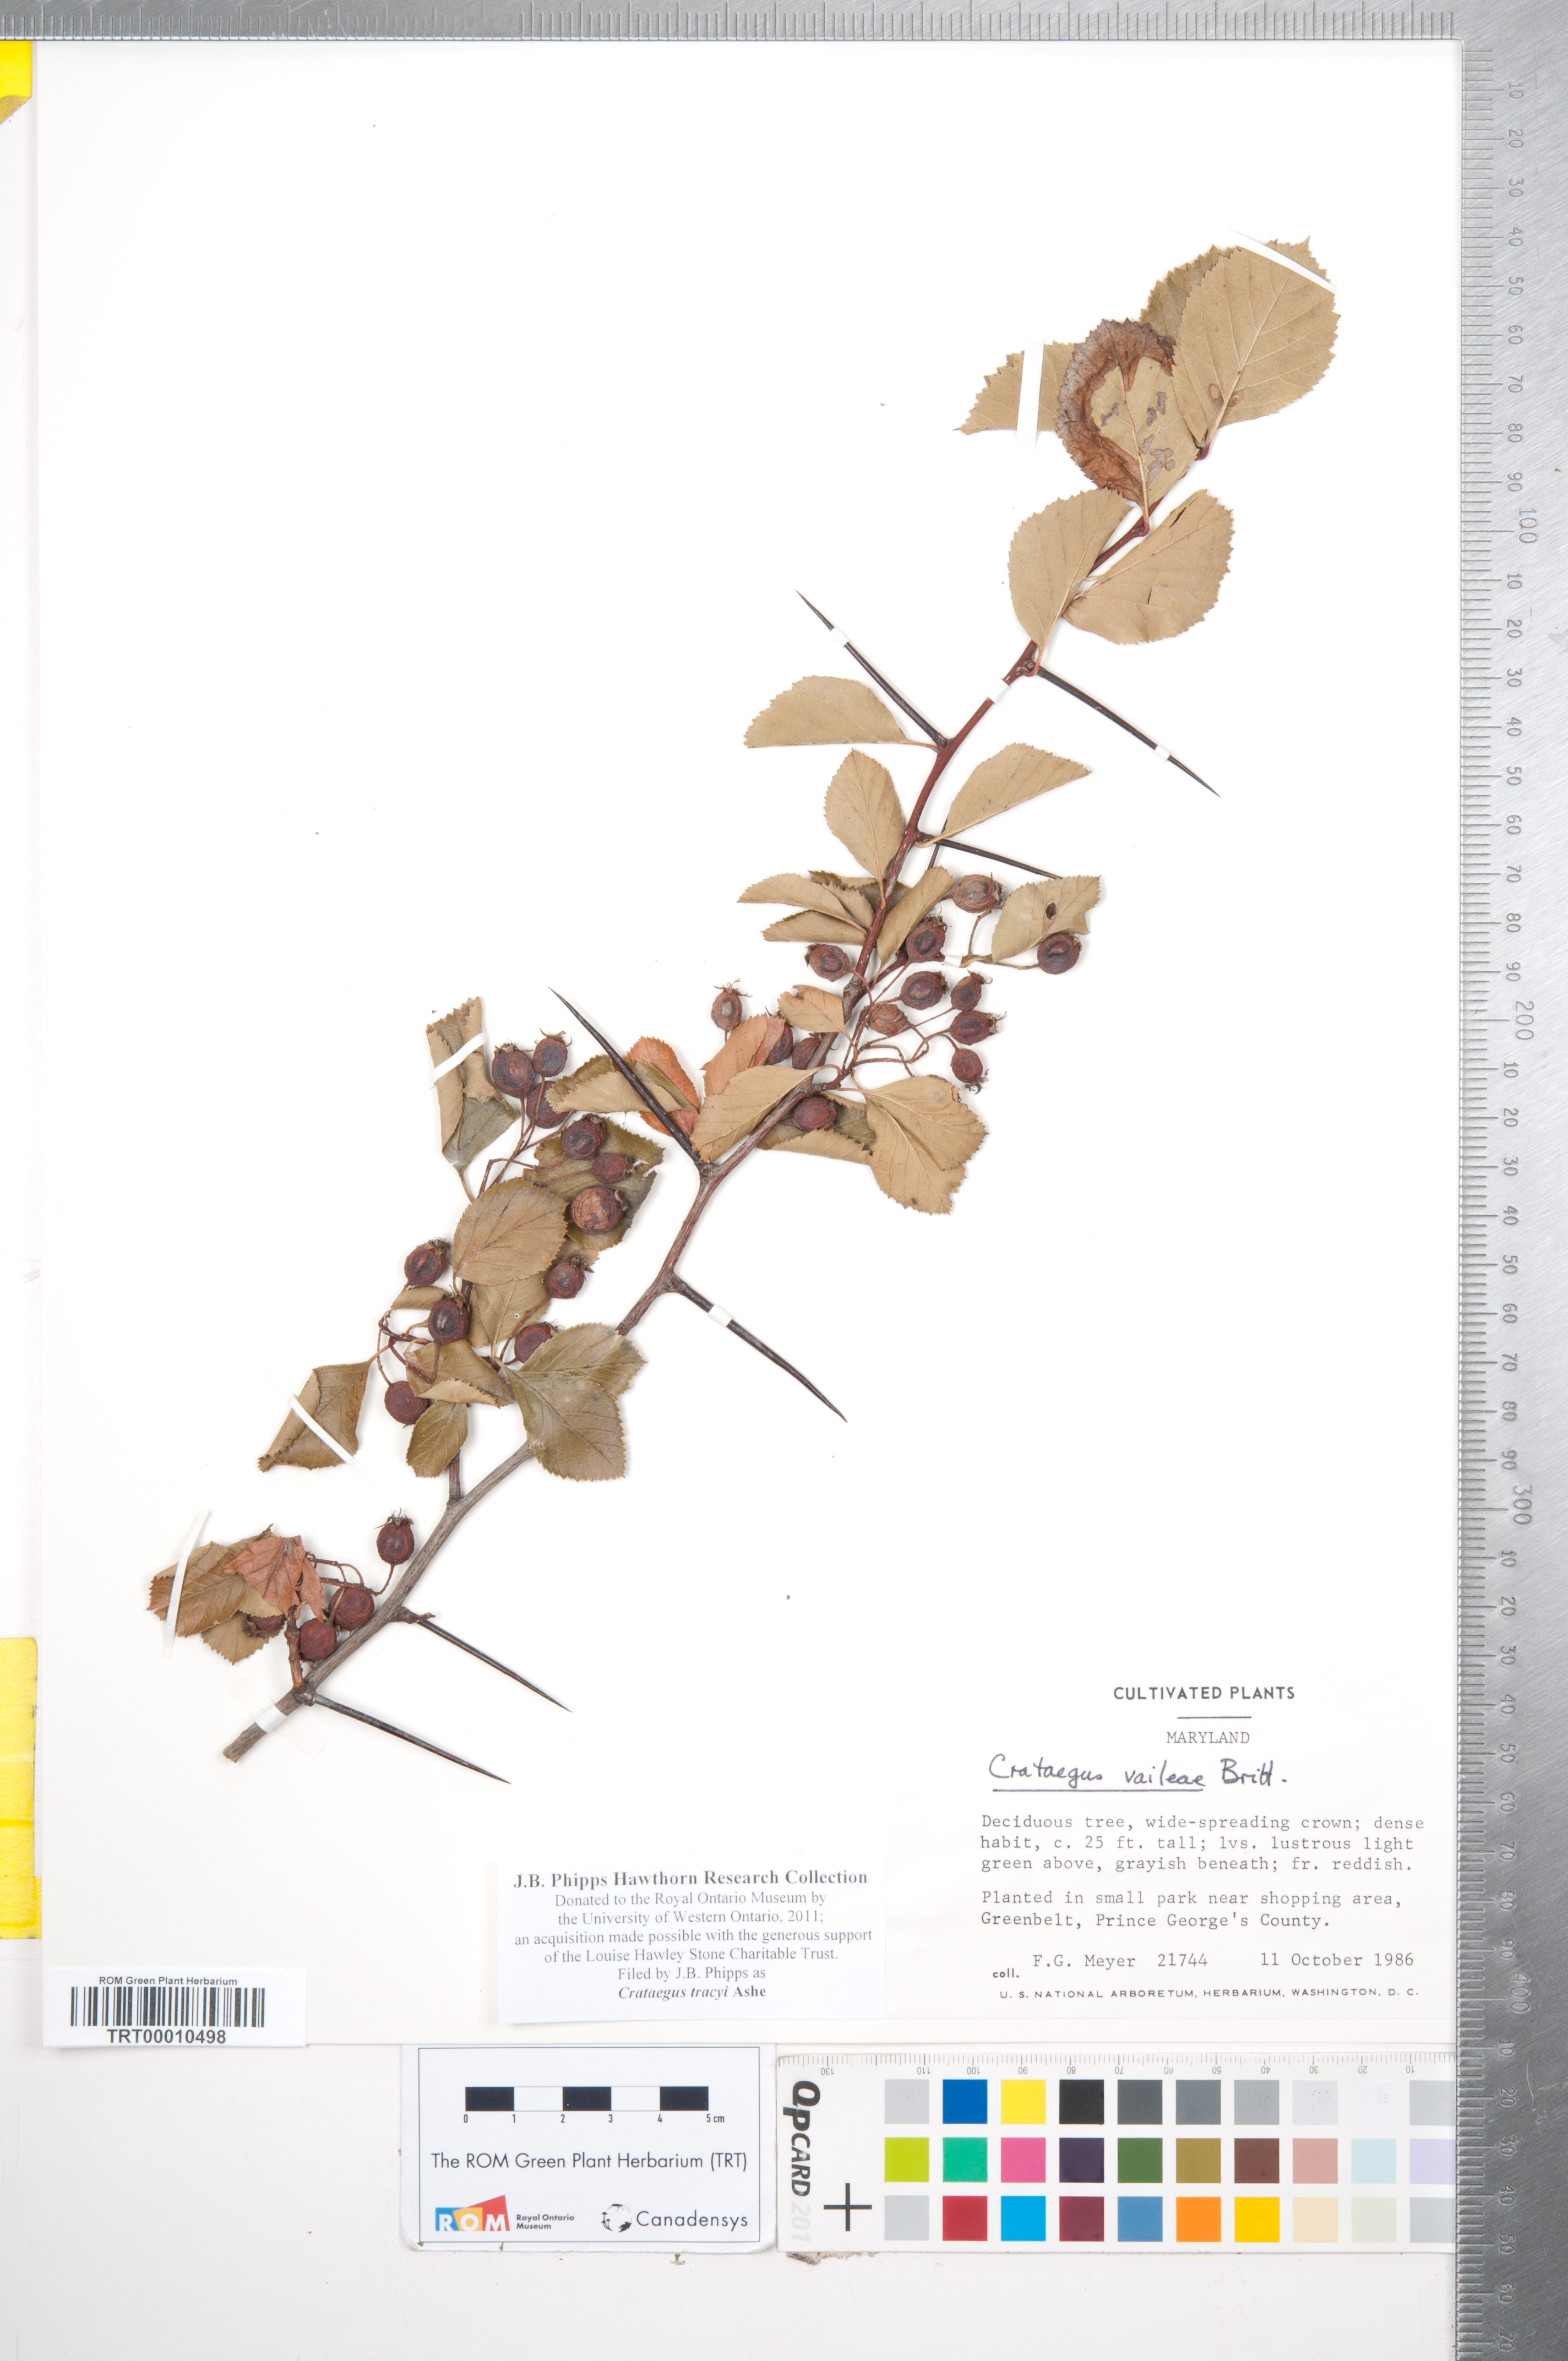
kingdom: Plantae
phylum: Tracheophyta
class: Magnoliopsida
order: Rosales
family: Rosaceae
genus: Crataegus
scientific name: Crataegus tracyi
